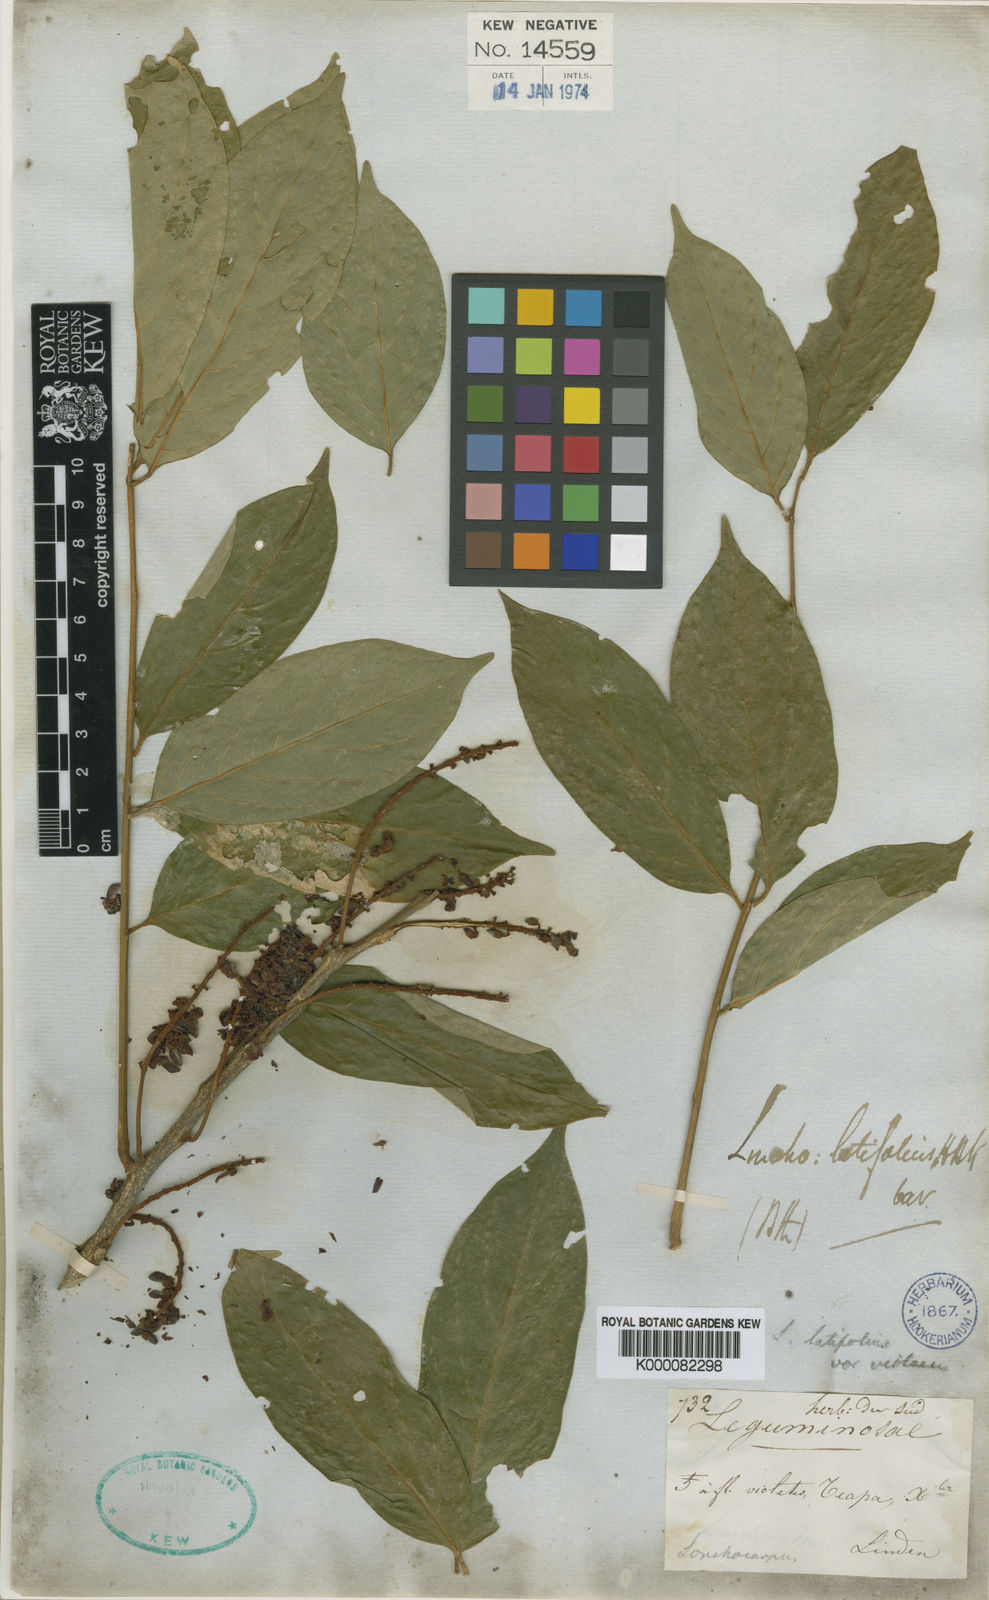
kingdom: Plantae
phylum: Tracheophyta
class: Magnoliopsida
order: Fabales
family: Fabaceae
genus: Lonchocarpus
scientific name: Lonchocarpus
